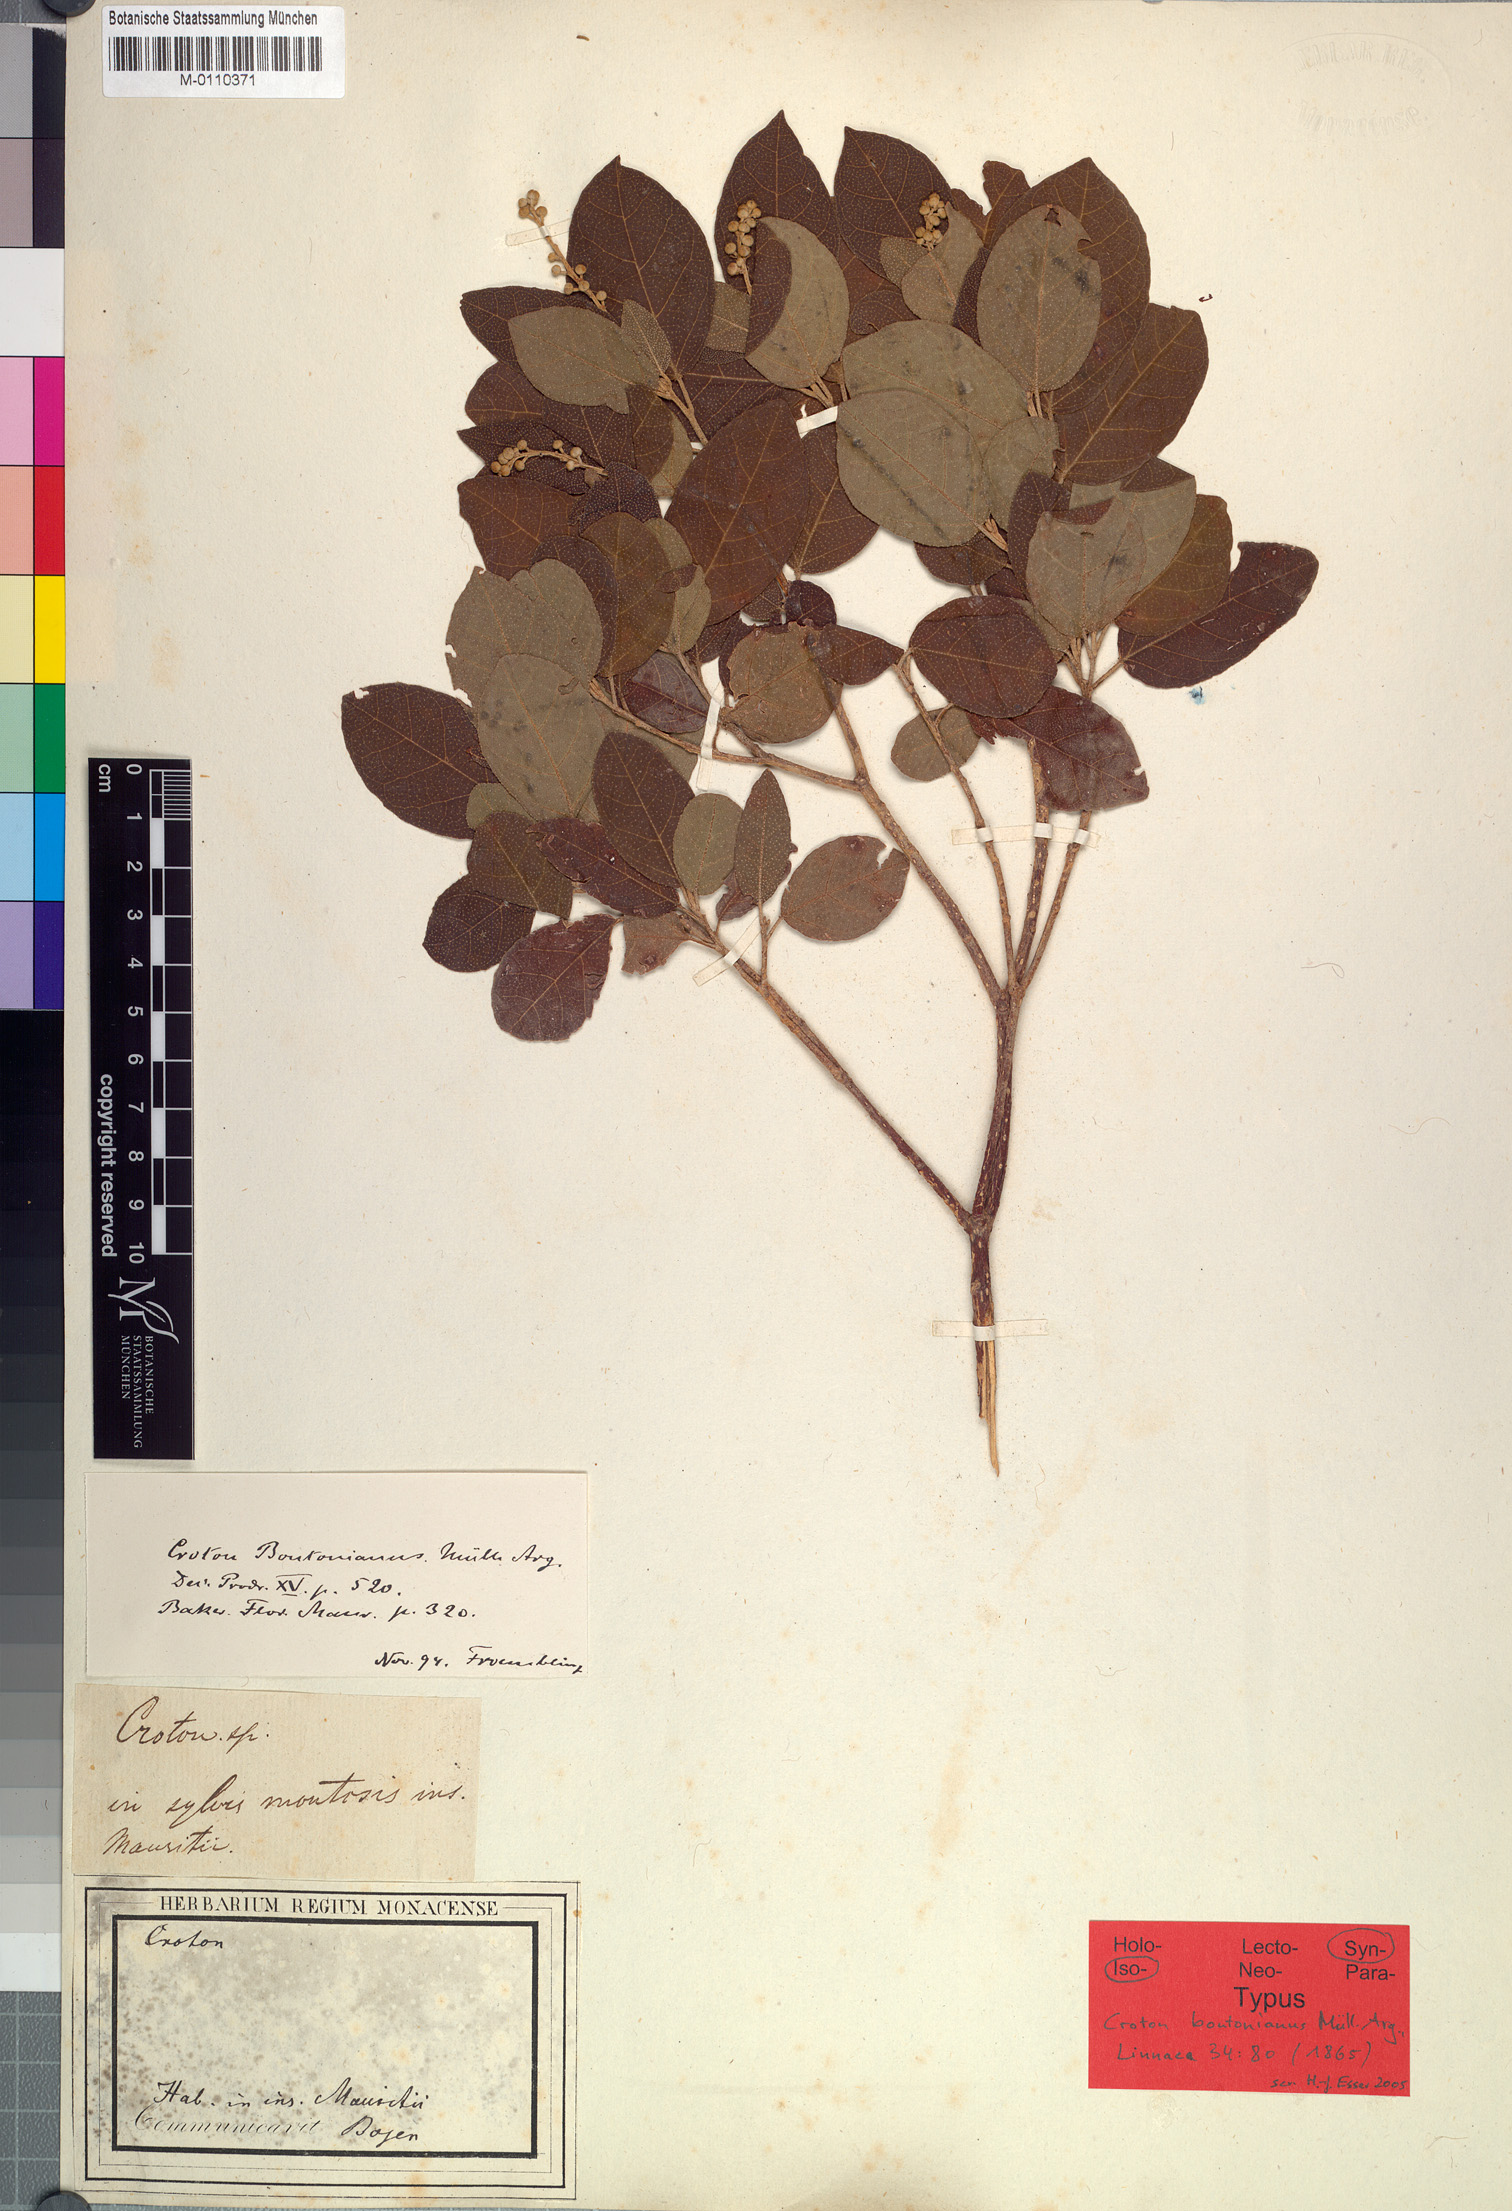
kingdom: Plantae
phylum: Tracheophyta
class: Magnoliopsida
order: Malpighiales
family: Euphorbiaceae
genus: Croton
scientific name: Croton grangerioides
